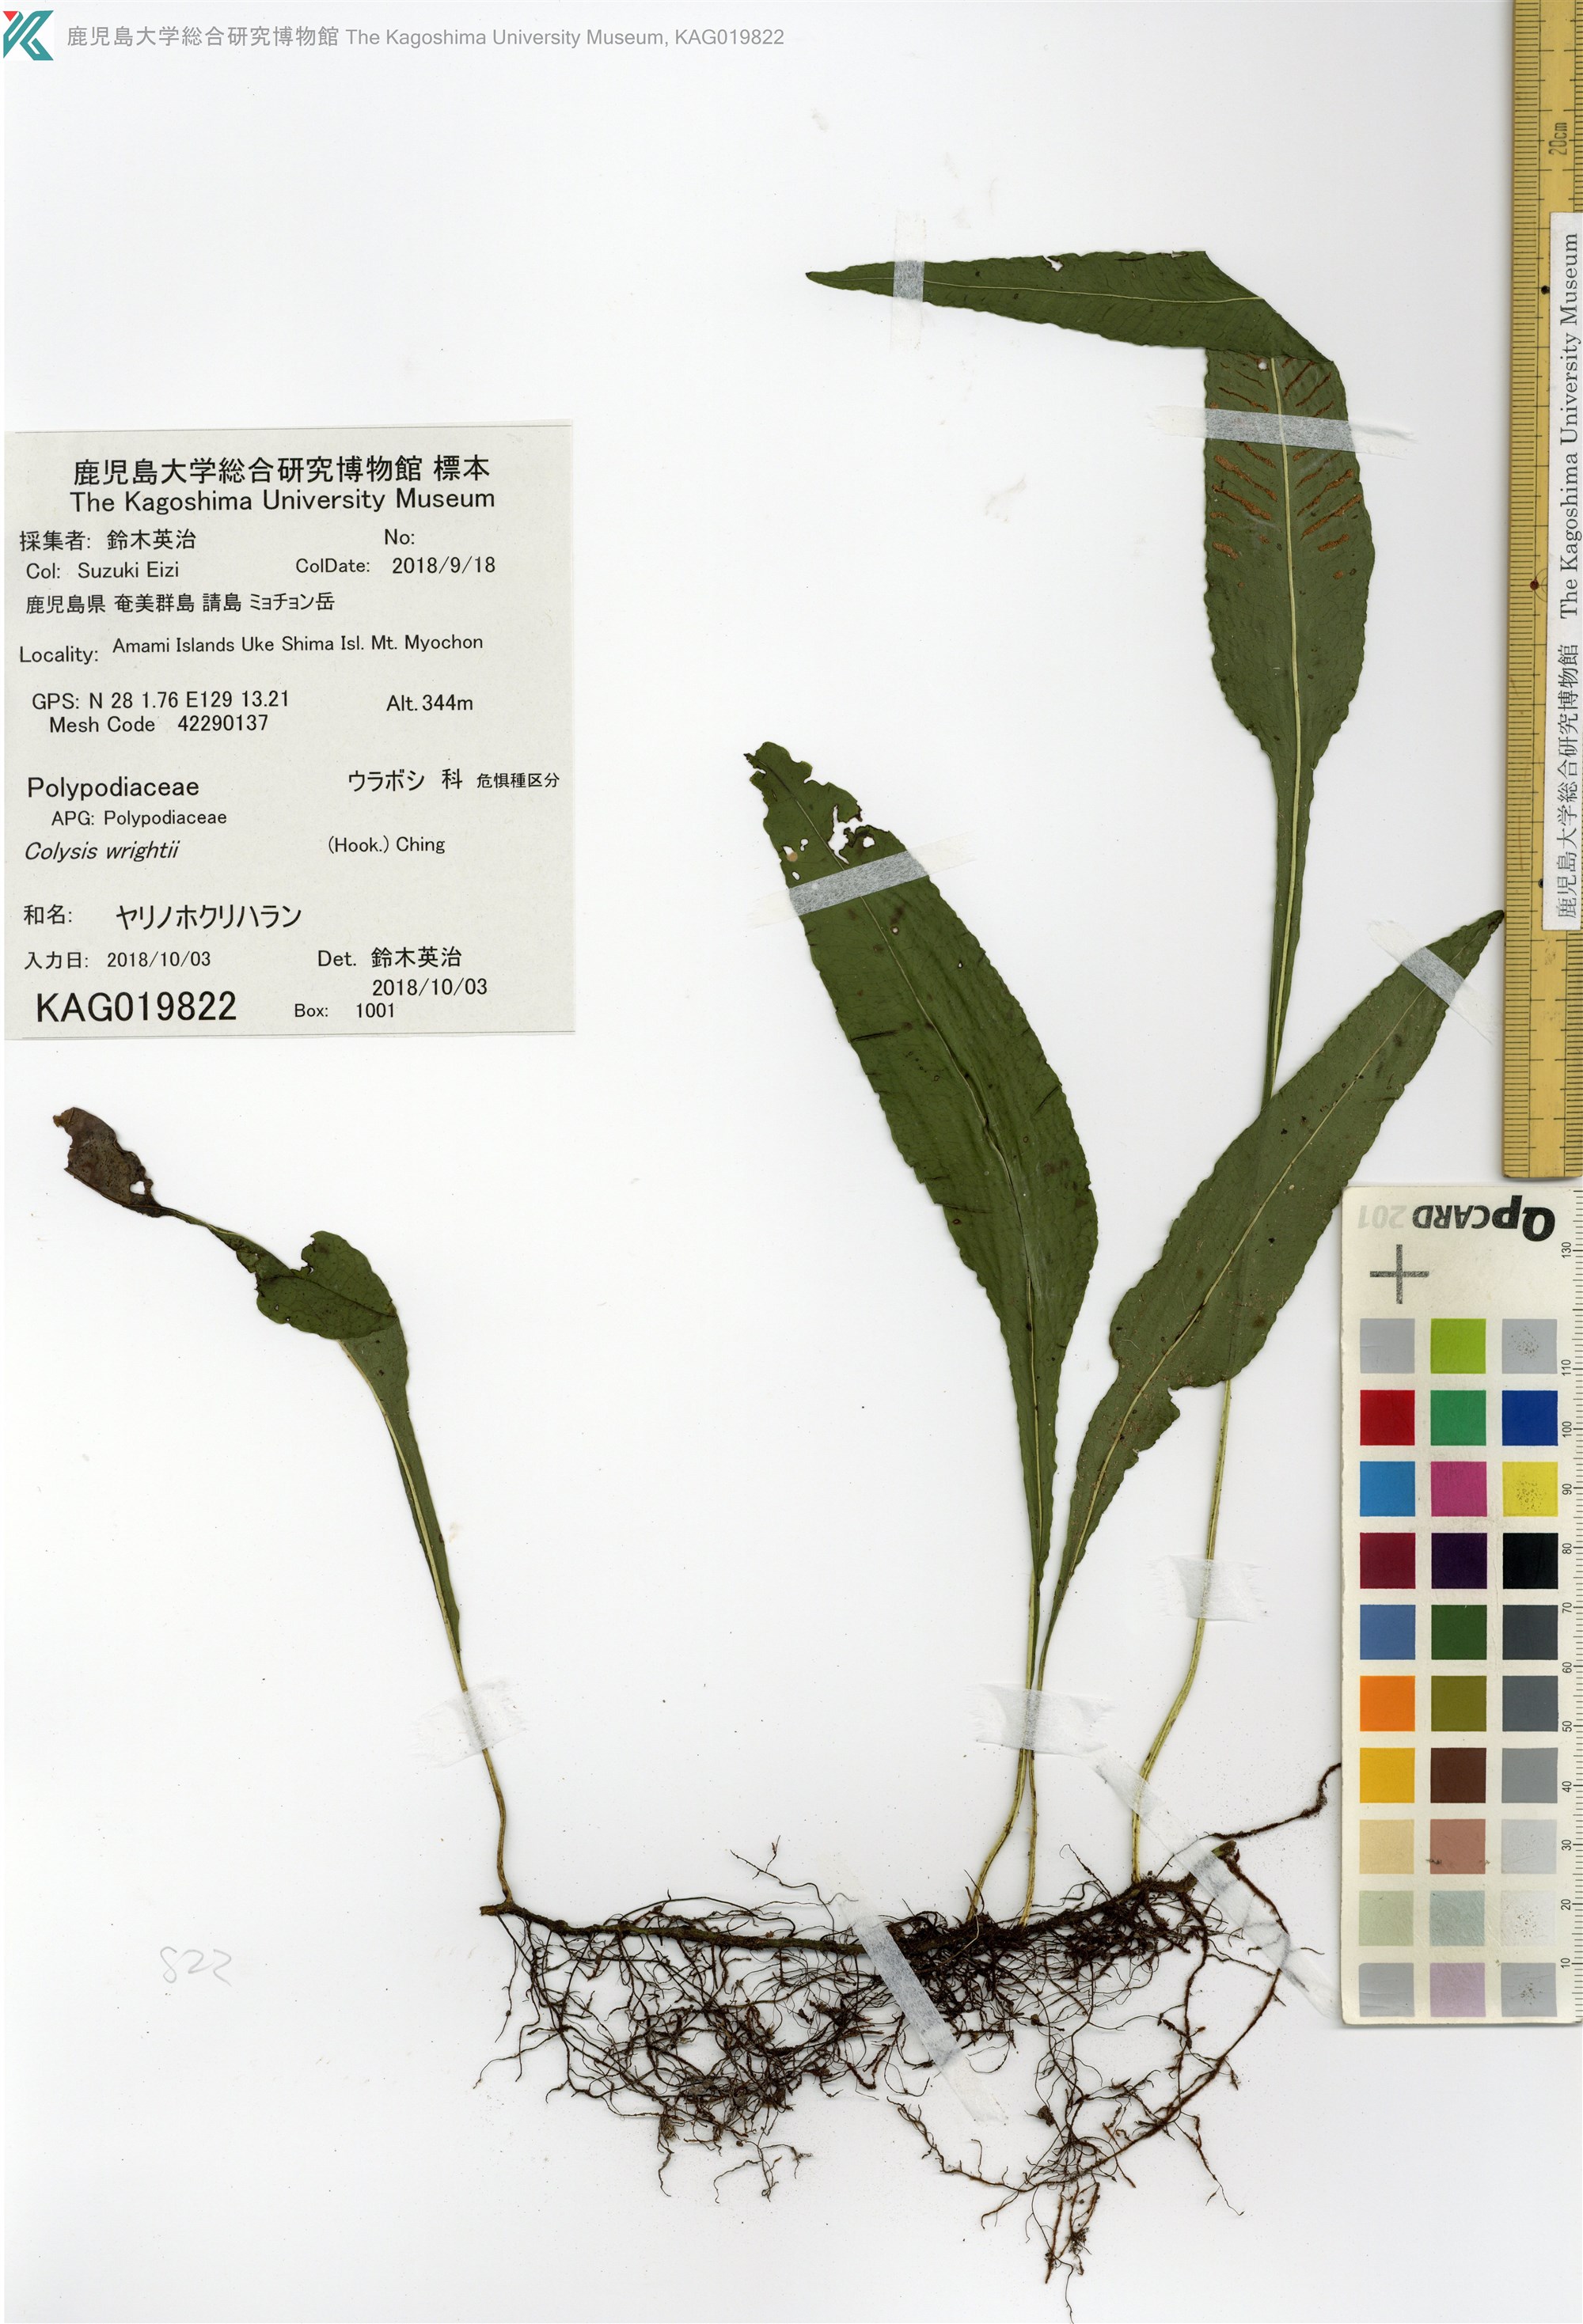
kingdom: Plantae
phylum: Tracheophyta
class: Polypodiopsida
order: Polypodiales
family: Polypodiaceae
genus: Leptochilus
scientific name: Leptochilus wrightii
